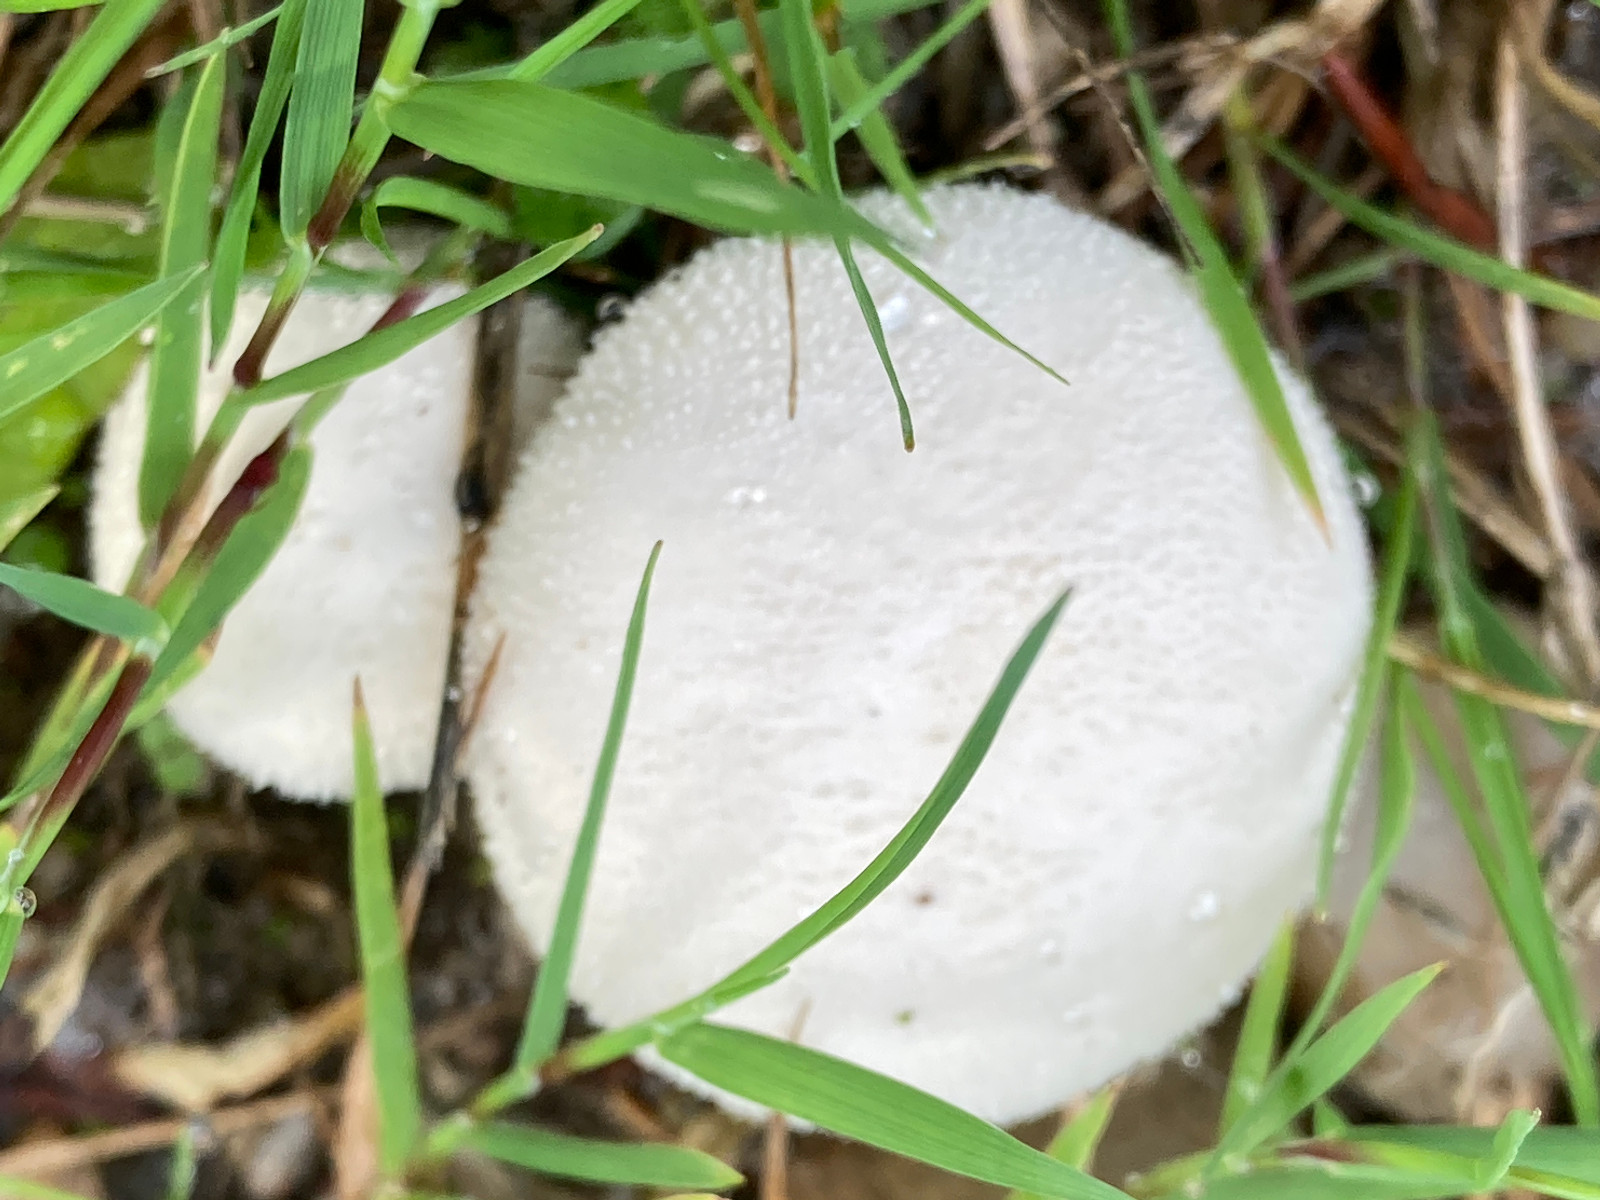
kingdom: Fungi
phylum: Basidiomycota
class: Agaricomycetes
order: Agaricales
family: Lycoperdaceae
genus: Lycoperdon
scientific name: Lycoperdon pratense
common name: flad støvbold
